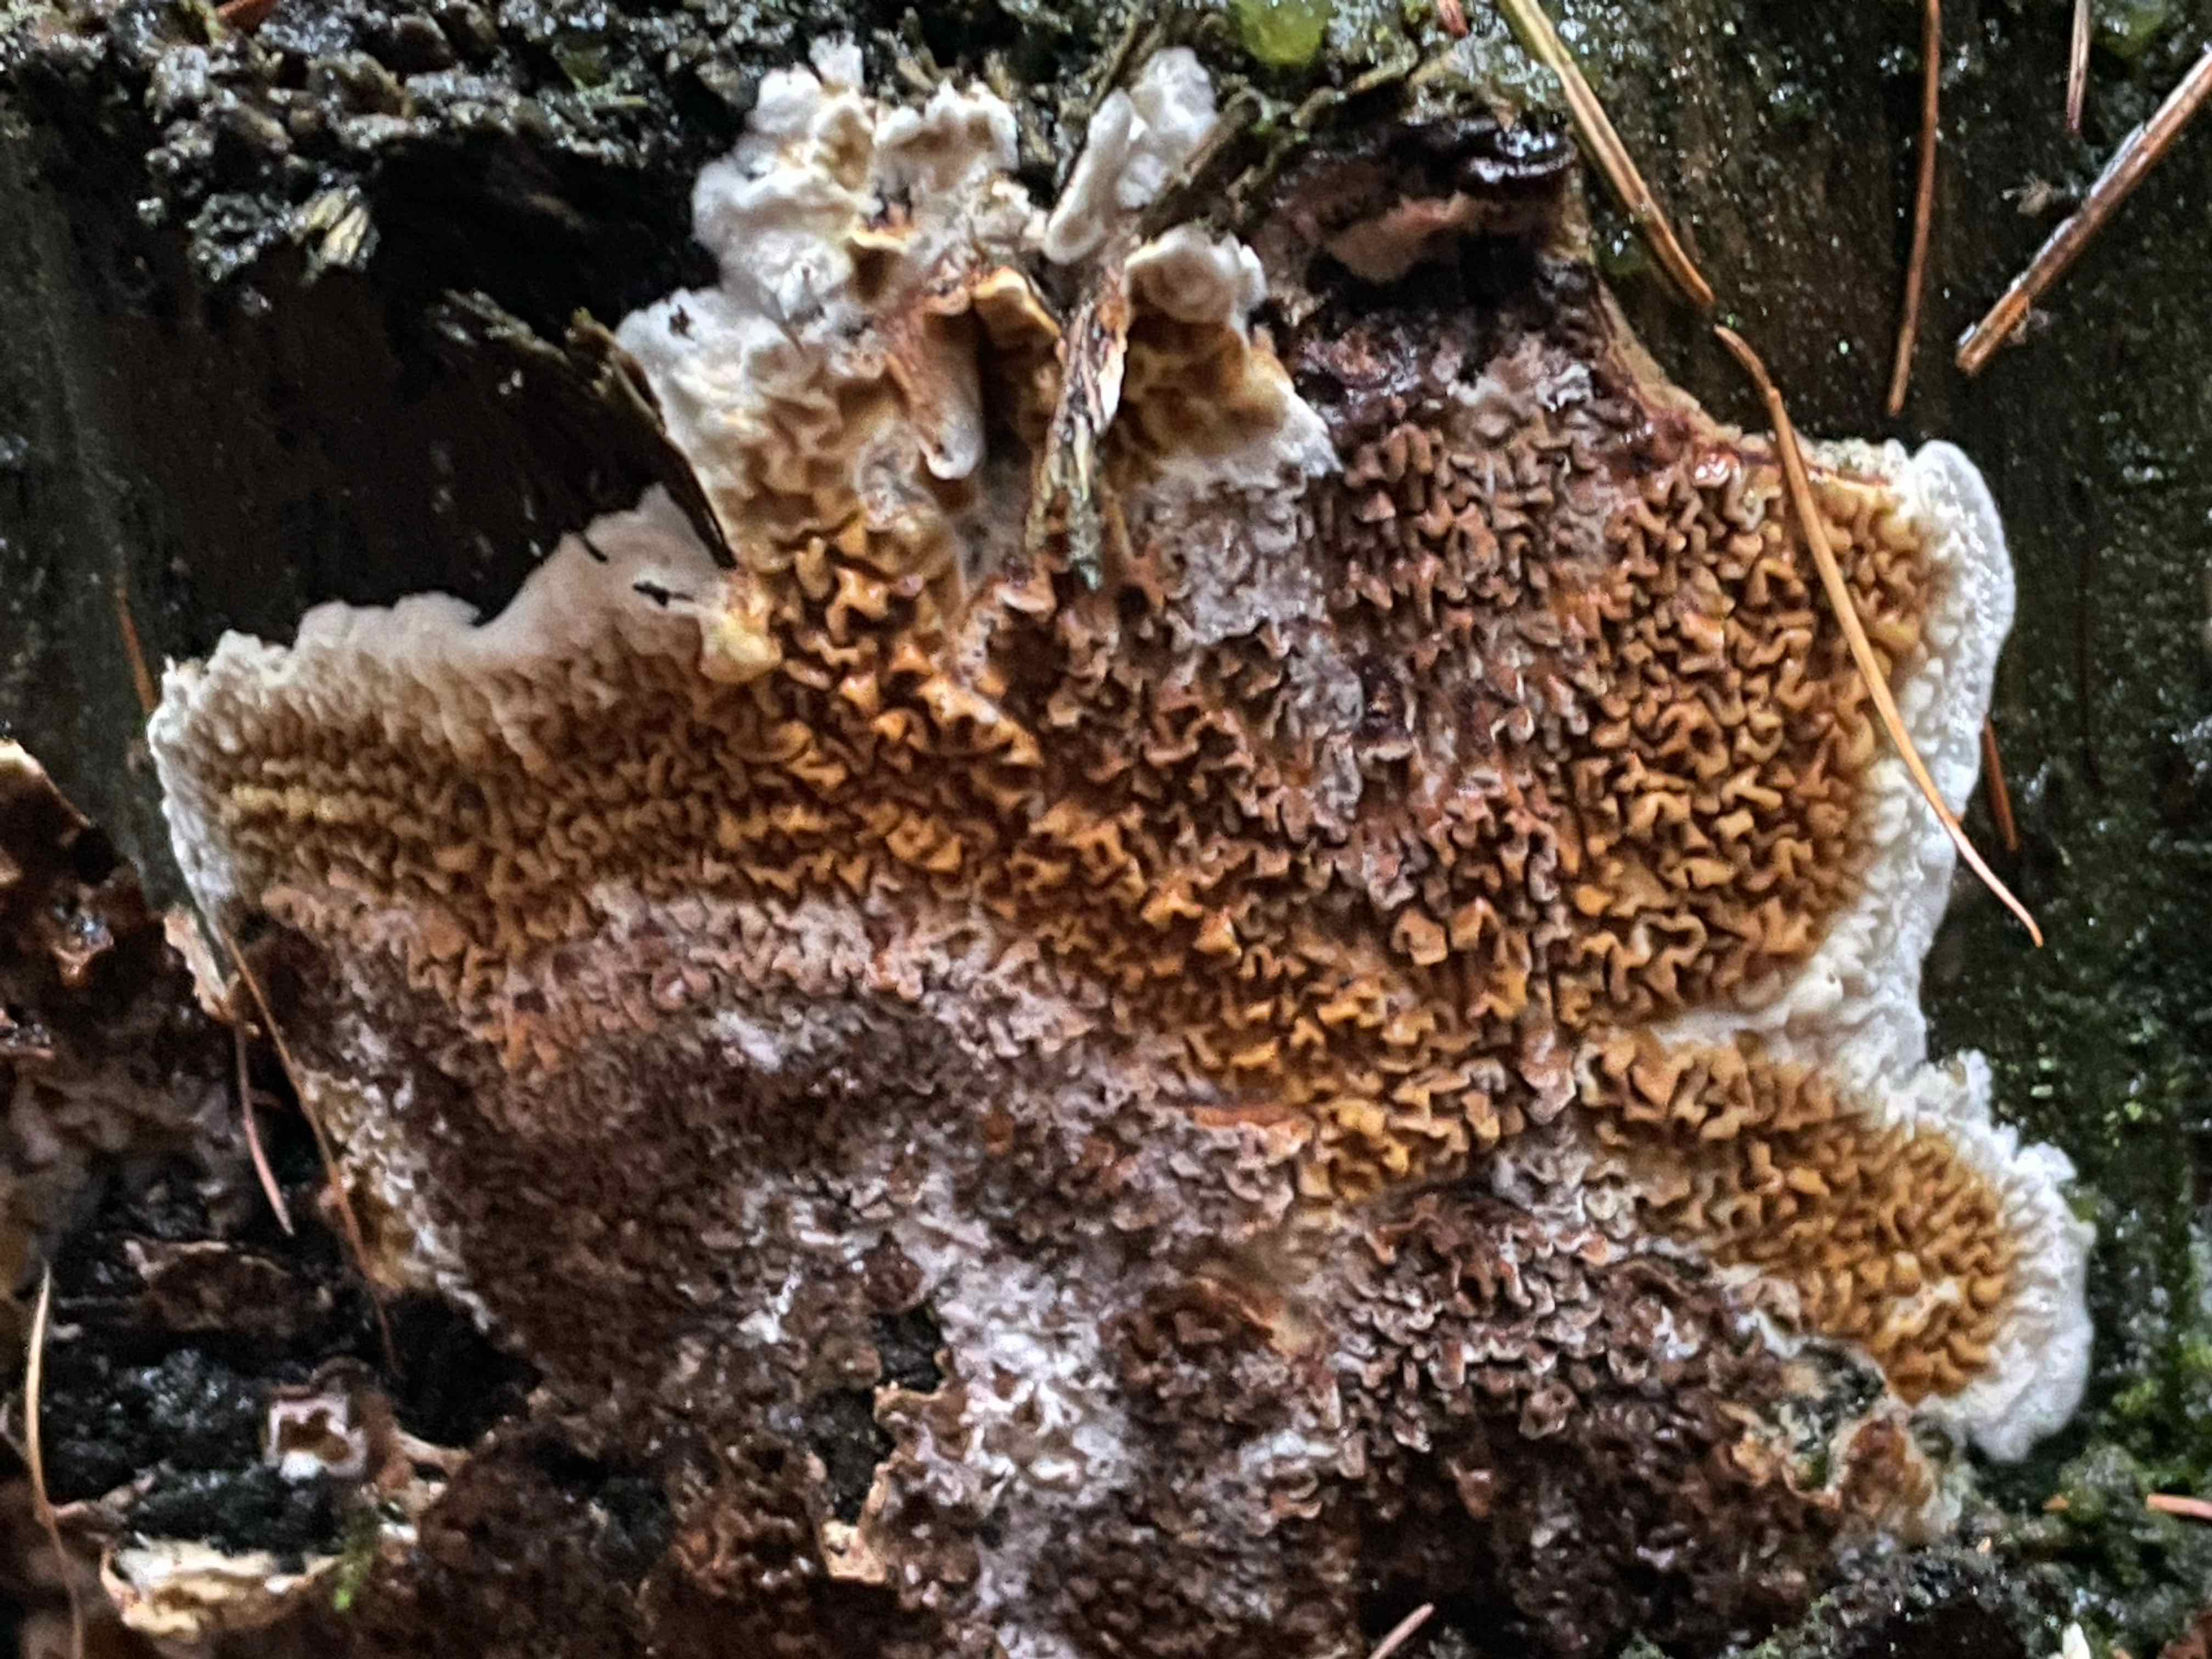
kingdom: Fungi
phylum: Basidiomycota
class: Agaricomycetes
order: Boletales
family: Serpulaceae
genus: Serpula
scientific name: Serpula himantioides
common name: tyndkødet hussvamp
